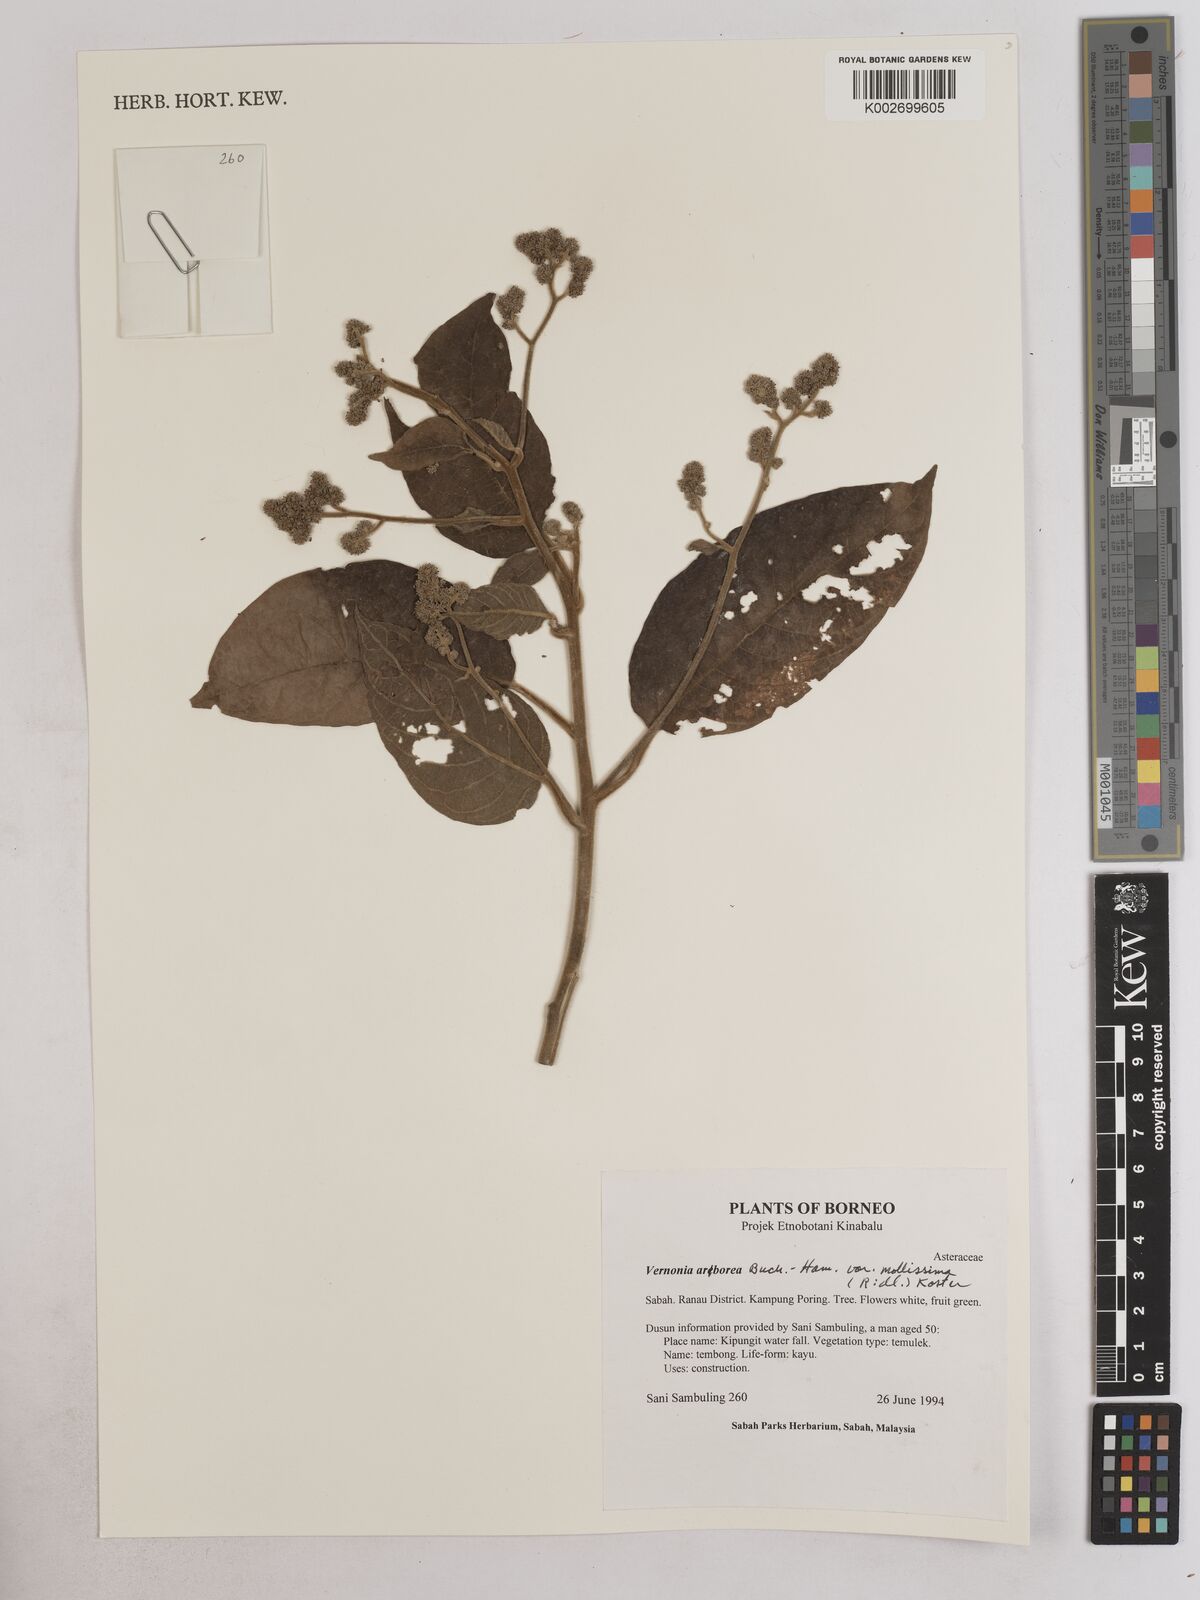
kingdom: Plantae
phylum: Tracheophyta
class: Magnoliopsida
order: Asterales
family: Asteraceae
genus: Strobocalyx
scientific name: Strobocalyx arborea
